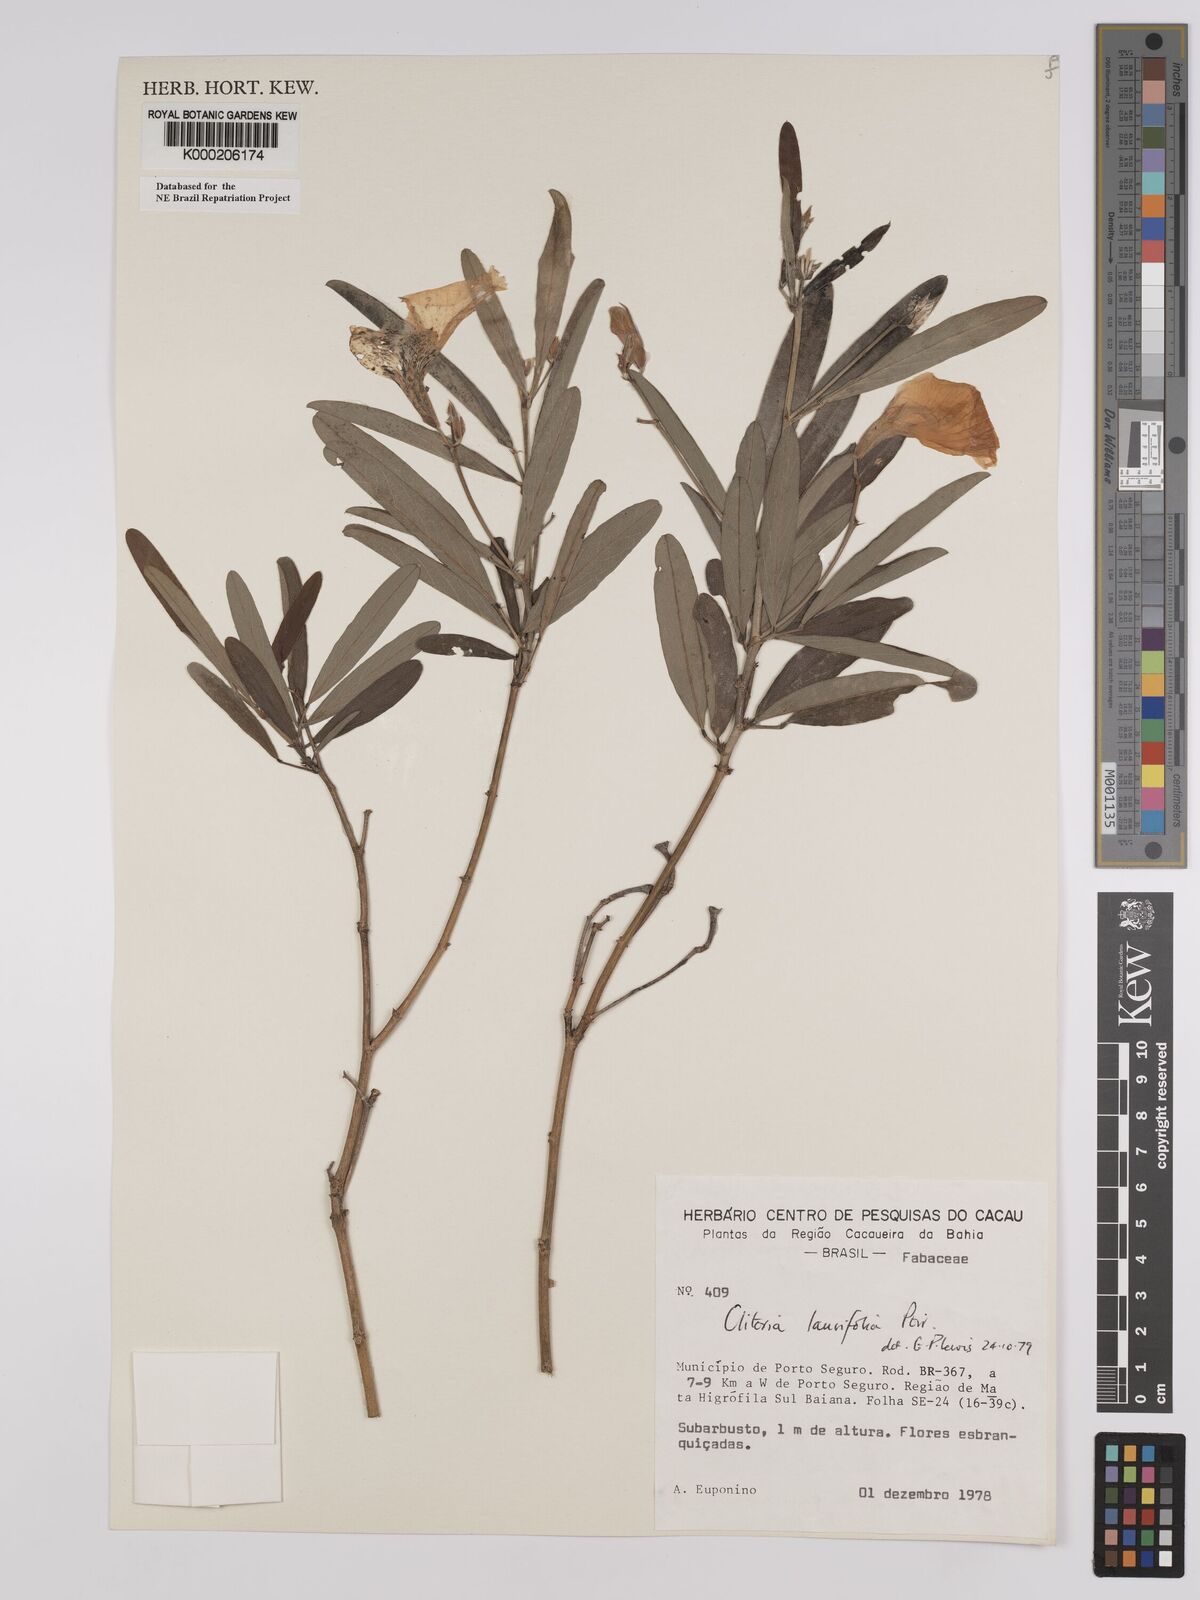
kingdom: Plantae
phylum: Tracheophyta
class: Magnoliopsida
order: Fabales
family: Fabaceae
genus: Clitoria
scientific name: Clitoria laurifolia
